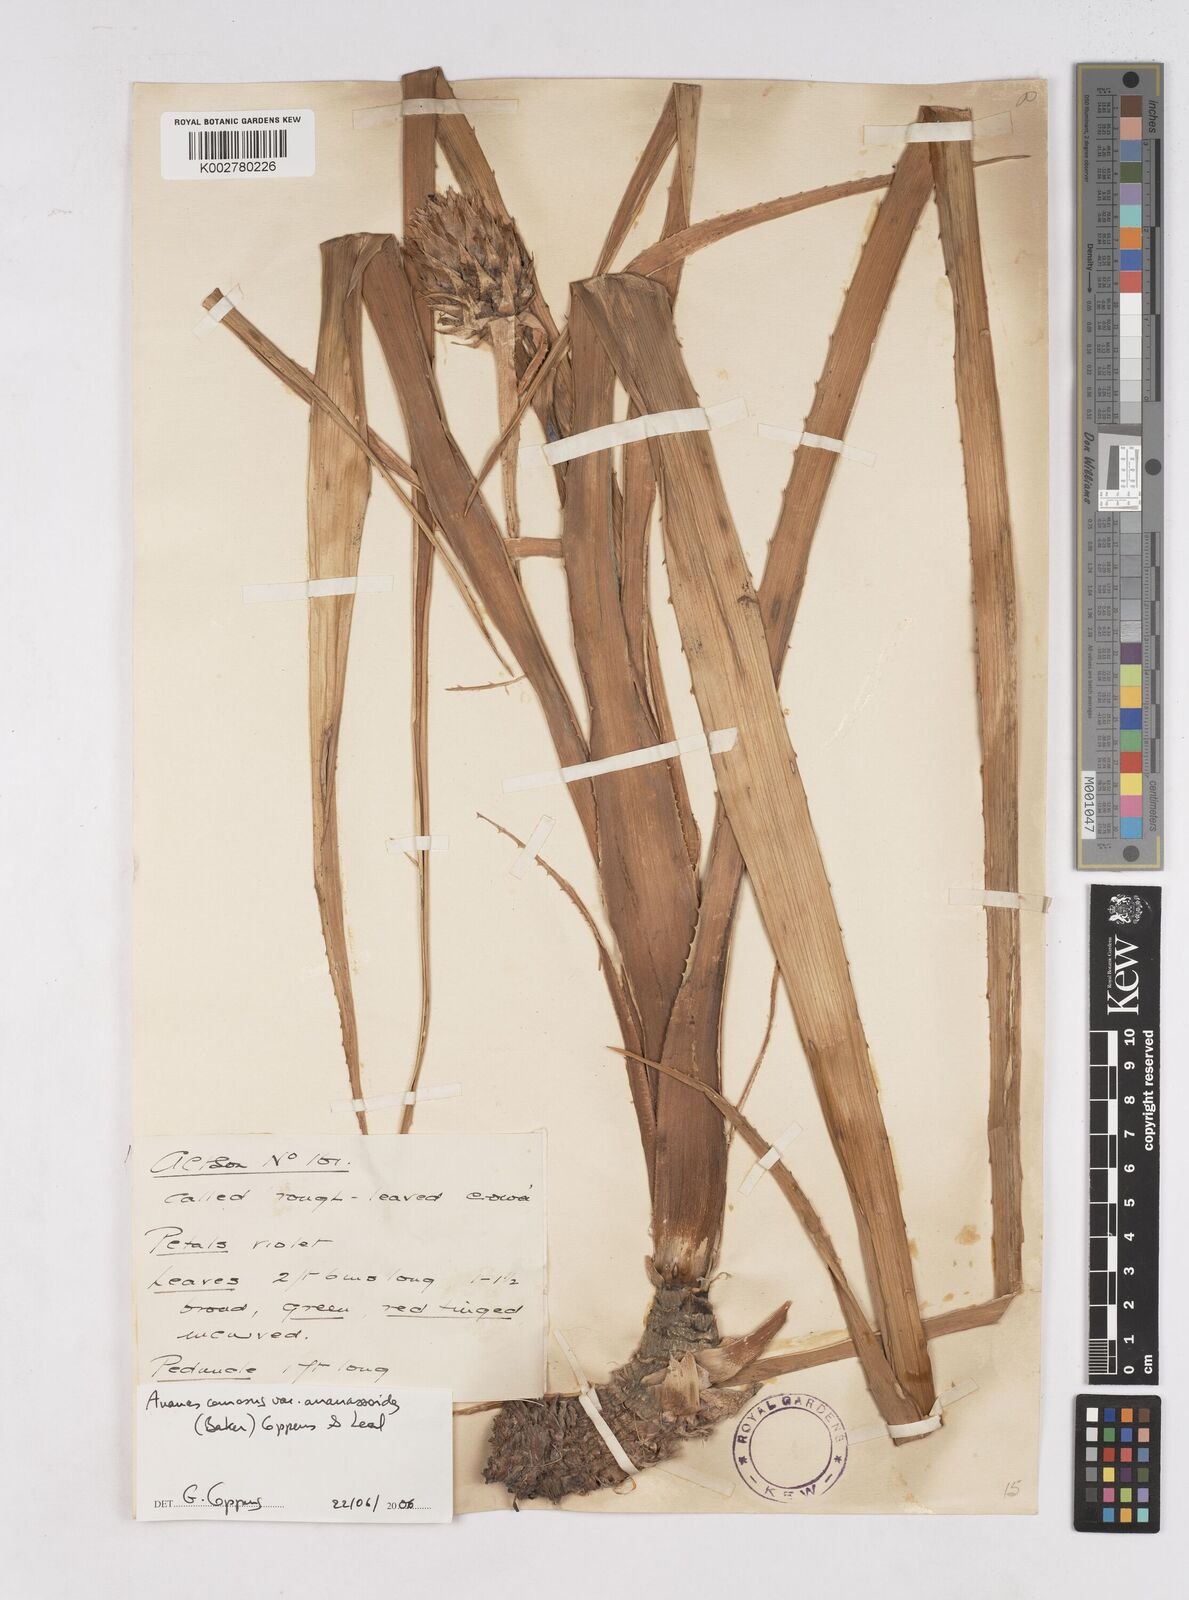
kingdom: Plantae
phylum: Tracheophyta
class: Liliopsida
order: Poales
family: Bromeliaceae
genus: Ananas
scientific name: Ananas comosus
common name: Pineapple
